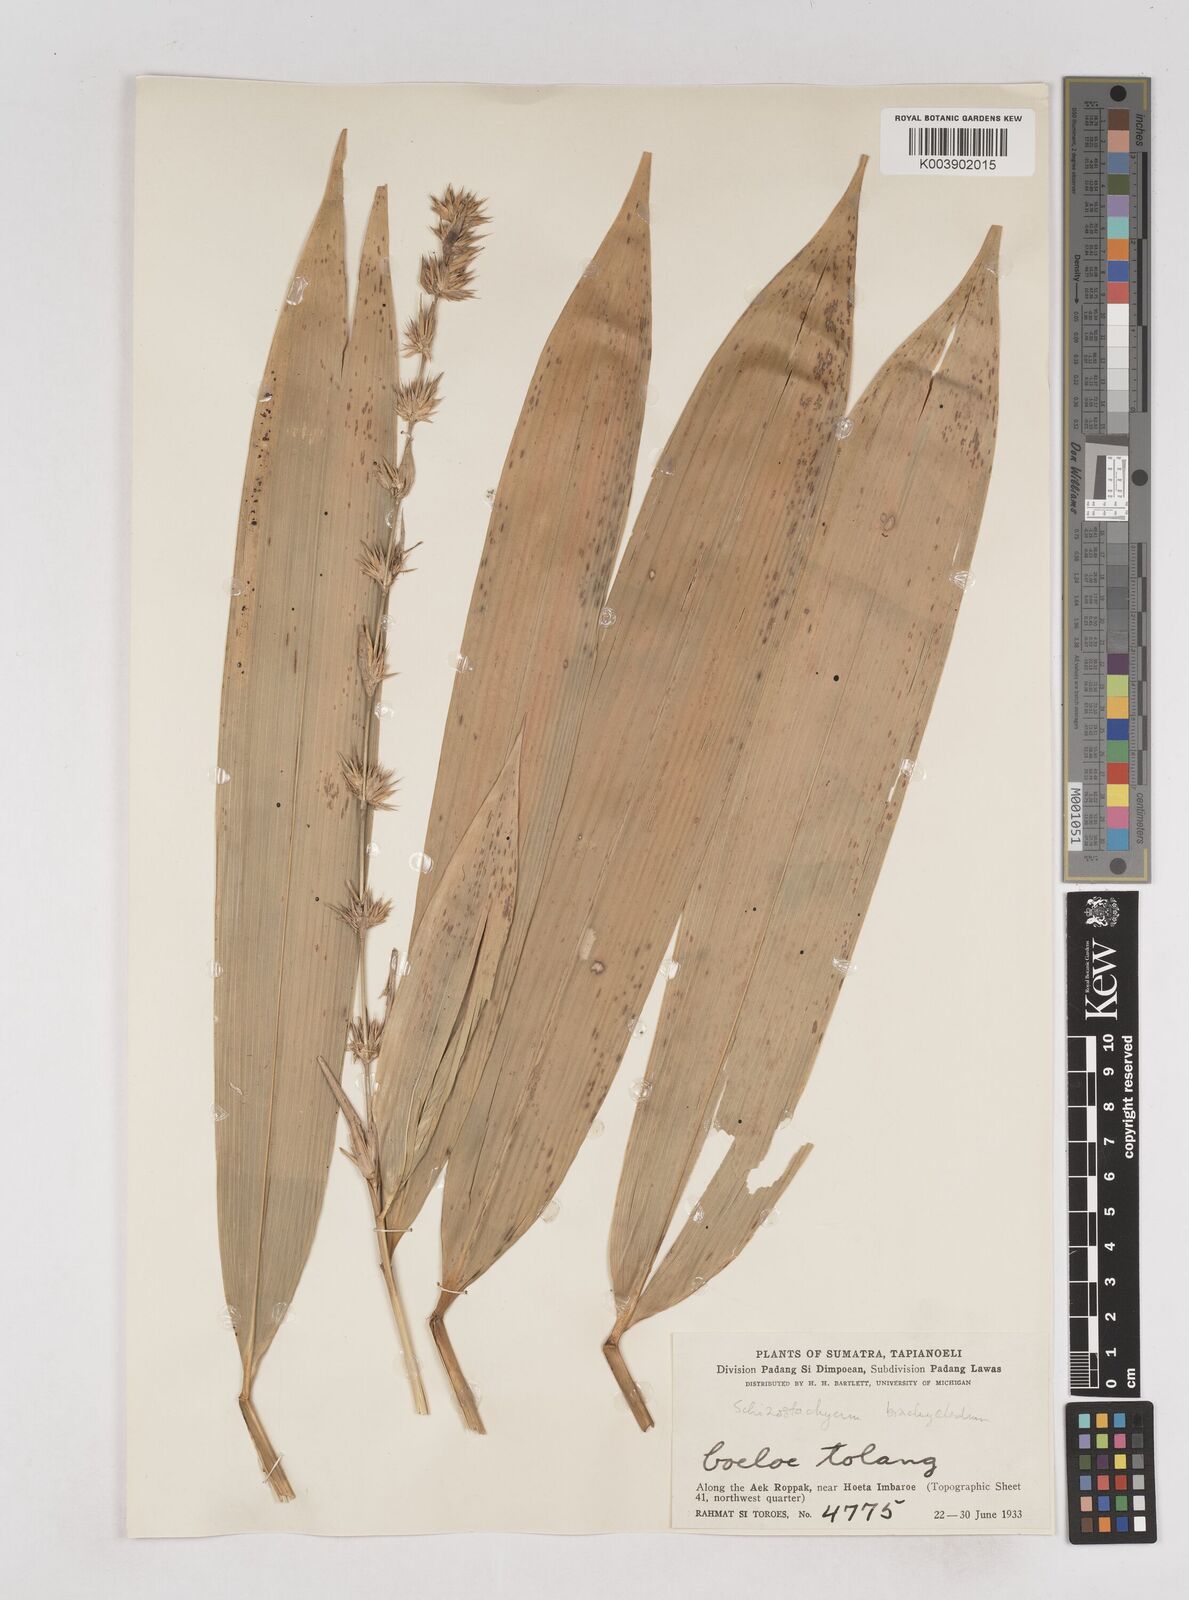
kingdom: Plantae
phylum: Tracheophyta
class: Liliopsida
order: Poales
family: Poaceae
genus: Schizostachyum
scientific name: Schizostachyum brachycladum
